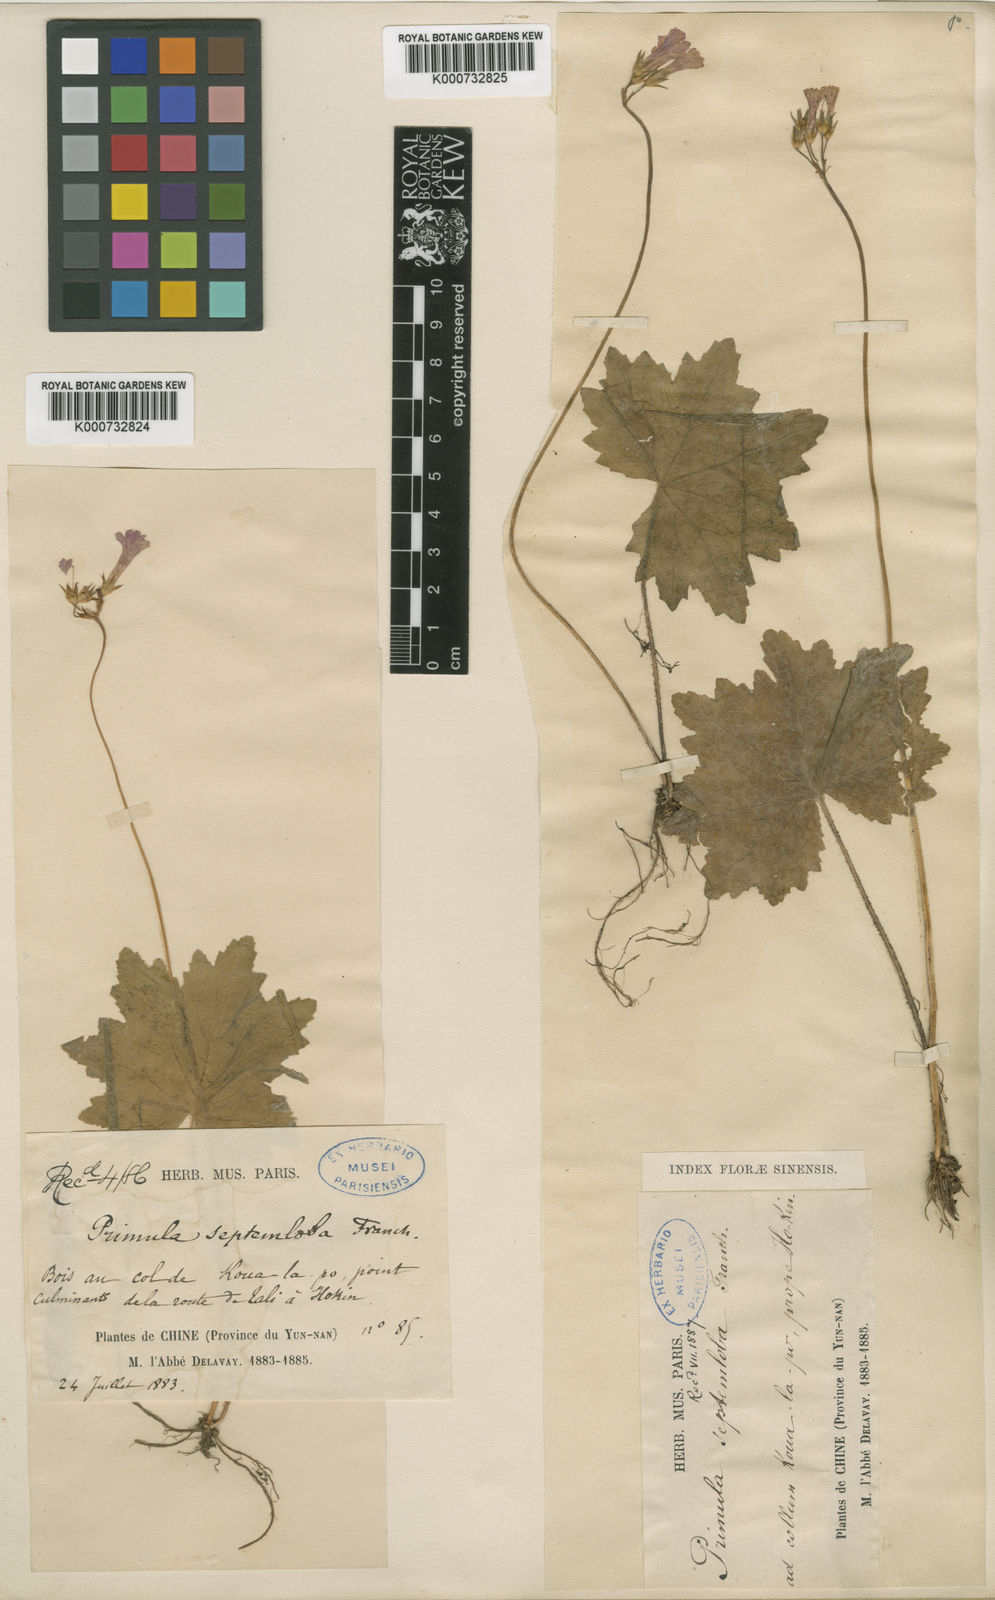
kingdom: Plantae
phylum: Tracheophyta
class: Magnoliopsida
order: Ericales
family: Primulaceae
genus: Primula
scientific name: Primula septemloba
